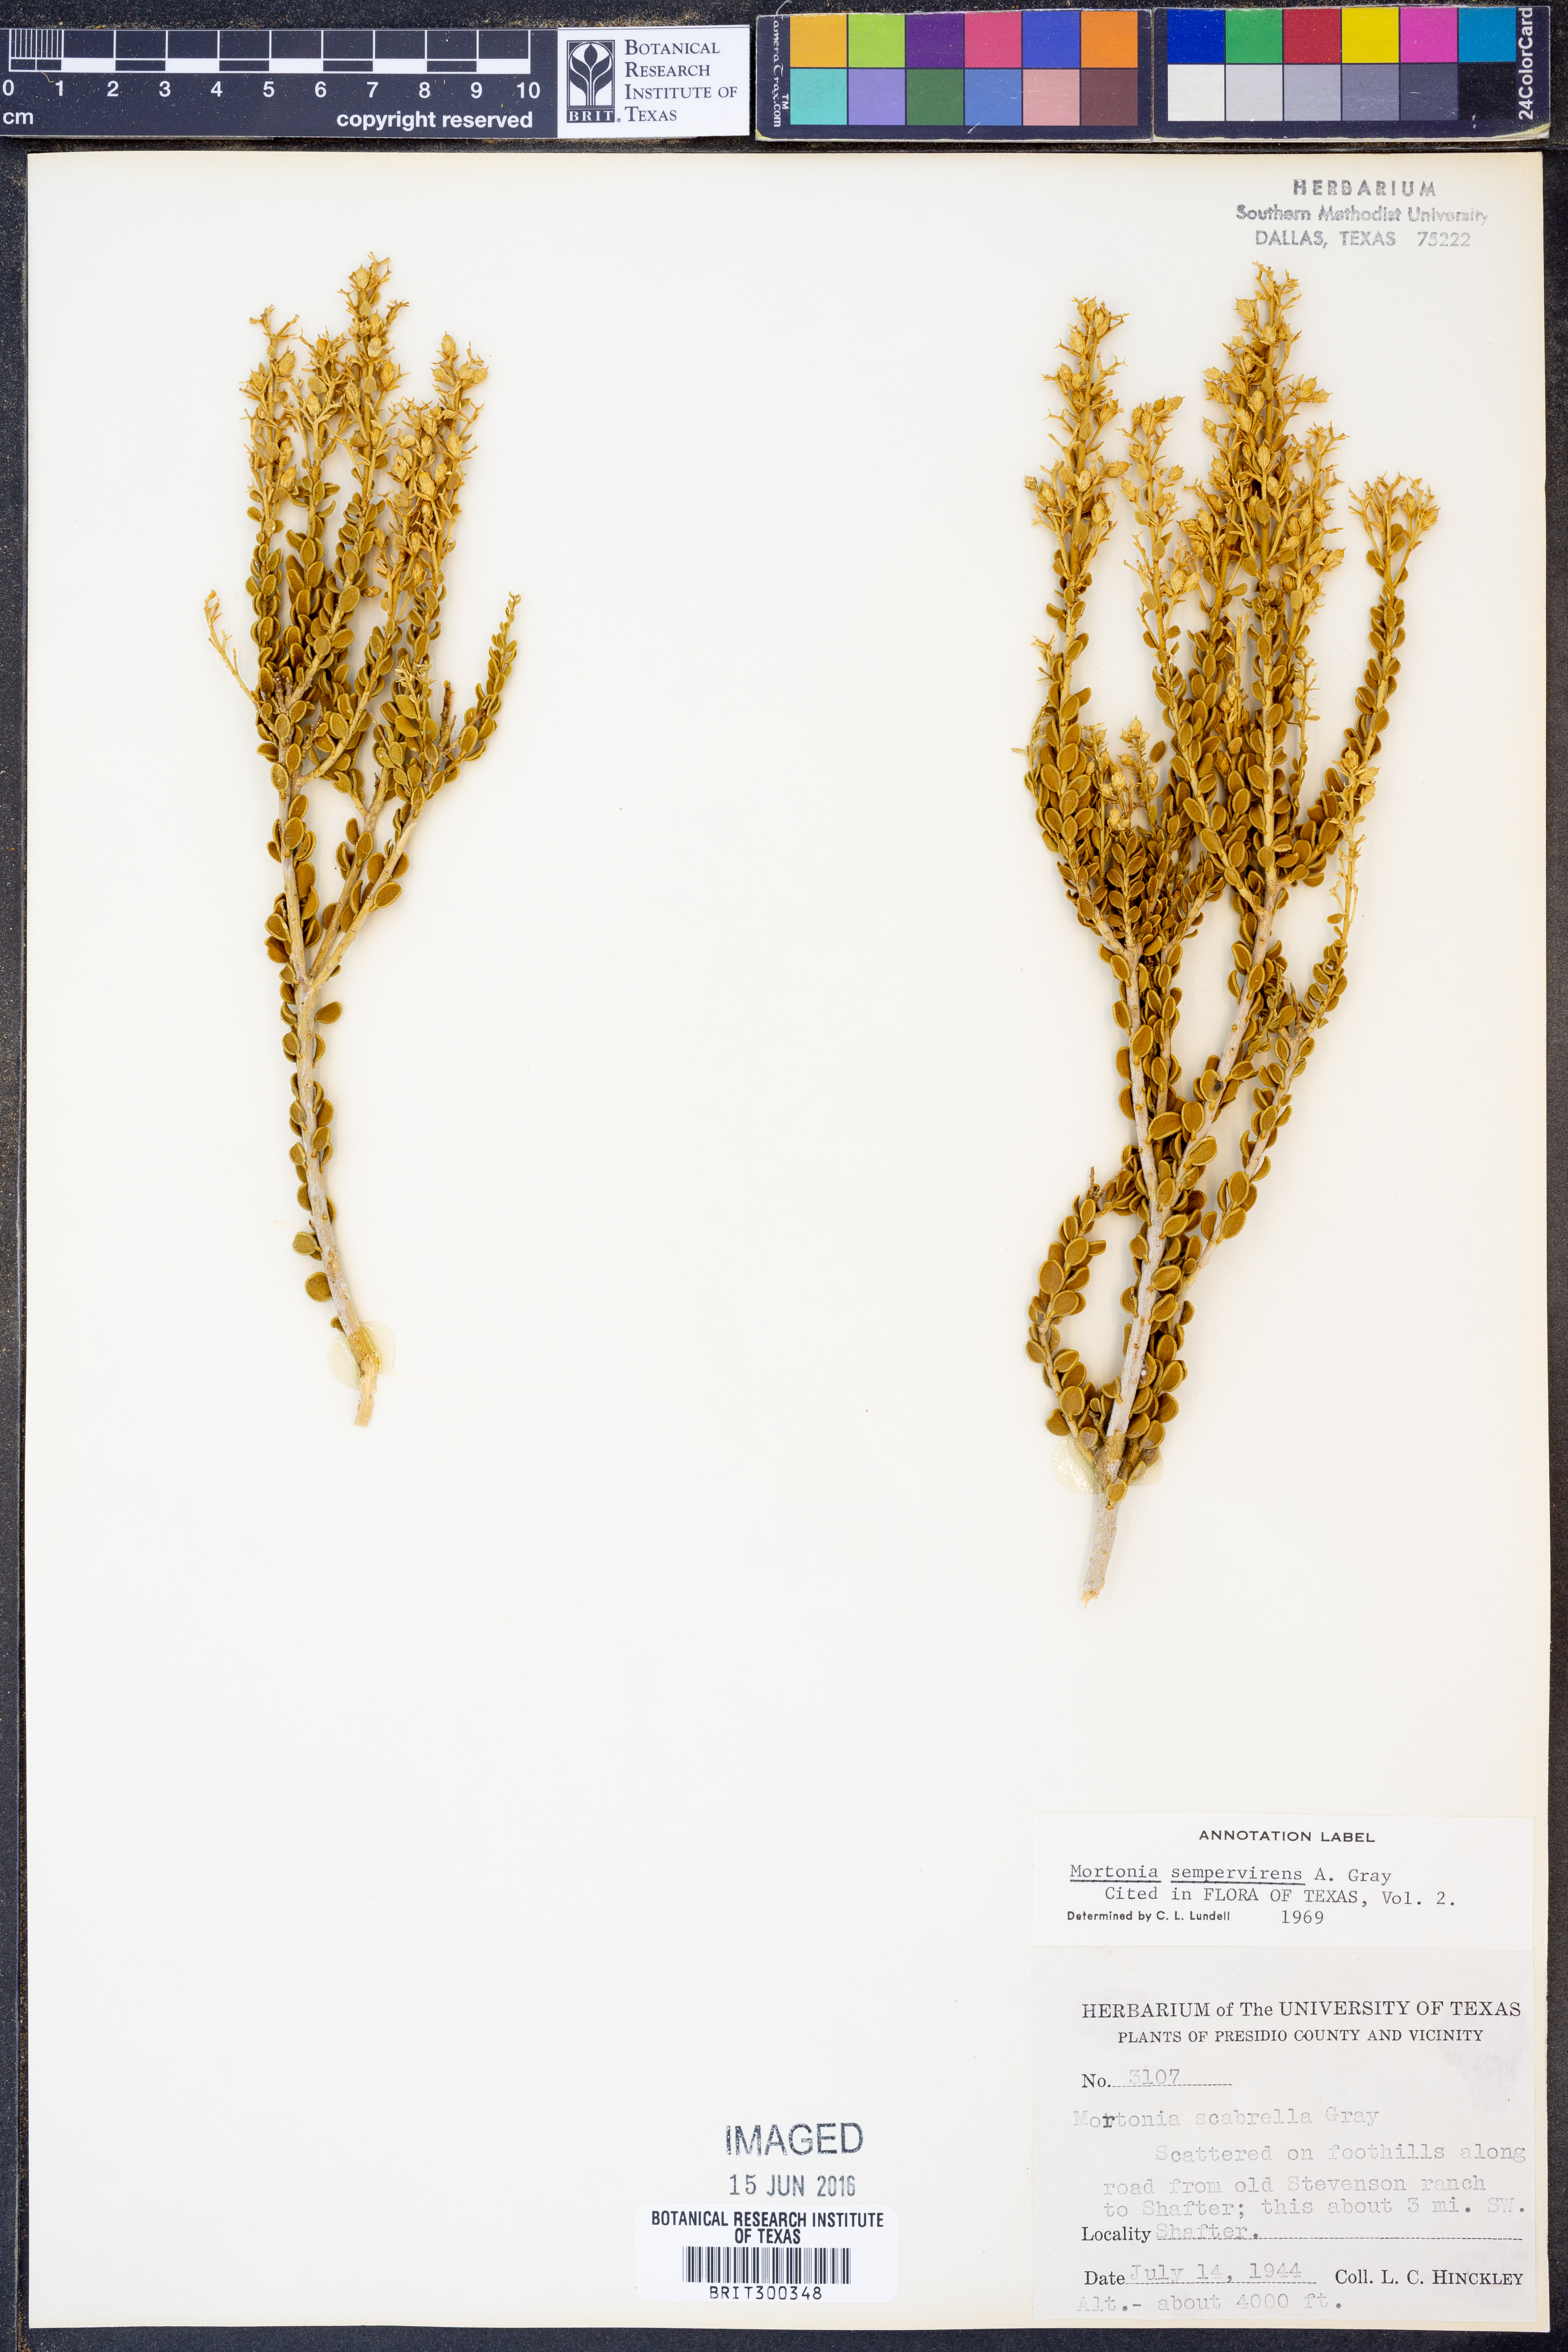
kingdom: Plantae
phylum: Tracheophyta
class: Magnoliopsida
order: Celastrales
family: Celastraceae
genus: Mortonia
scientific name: Mortonia sempervirens
